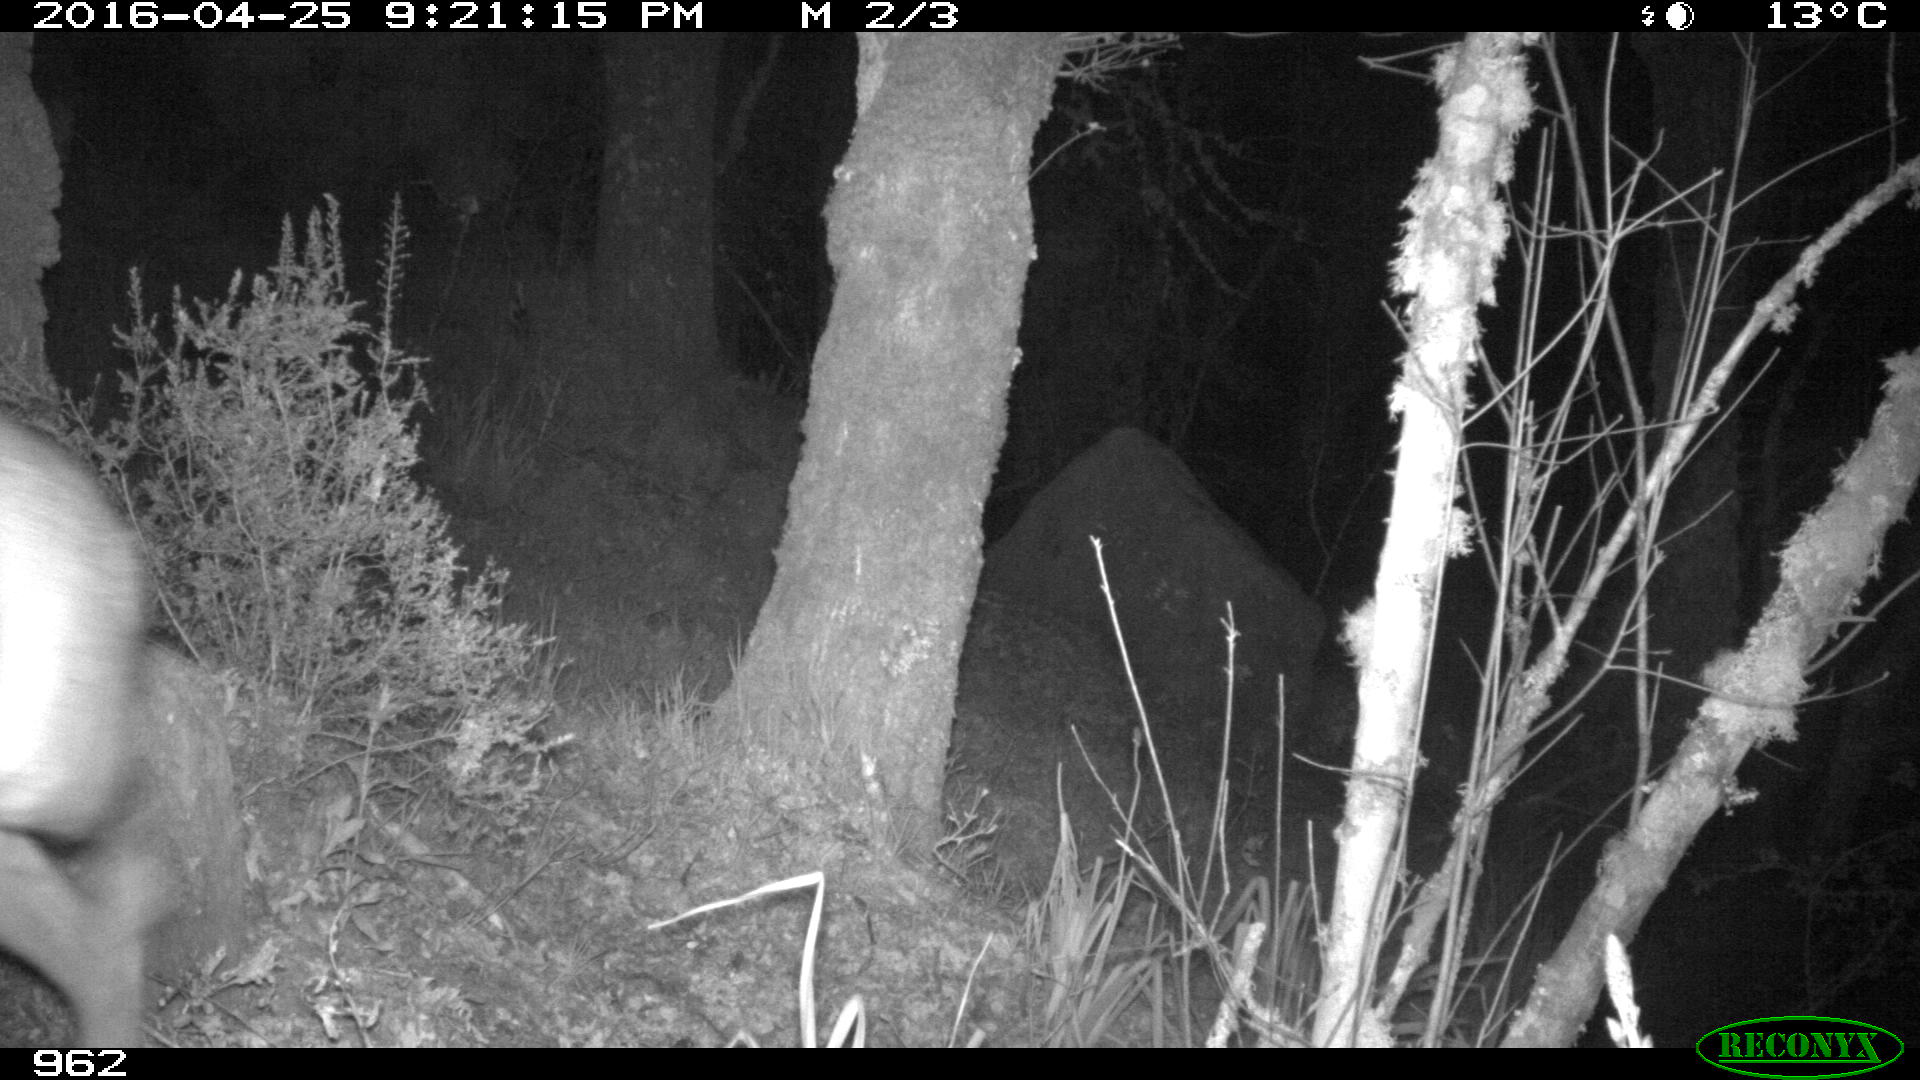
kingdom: Animalia
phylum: Chordata
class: Mammalia
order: Artiodactyla
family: Cervidae
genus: Capreolus
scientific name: Capreolus capreolus
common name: Western roe deer
